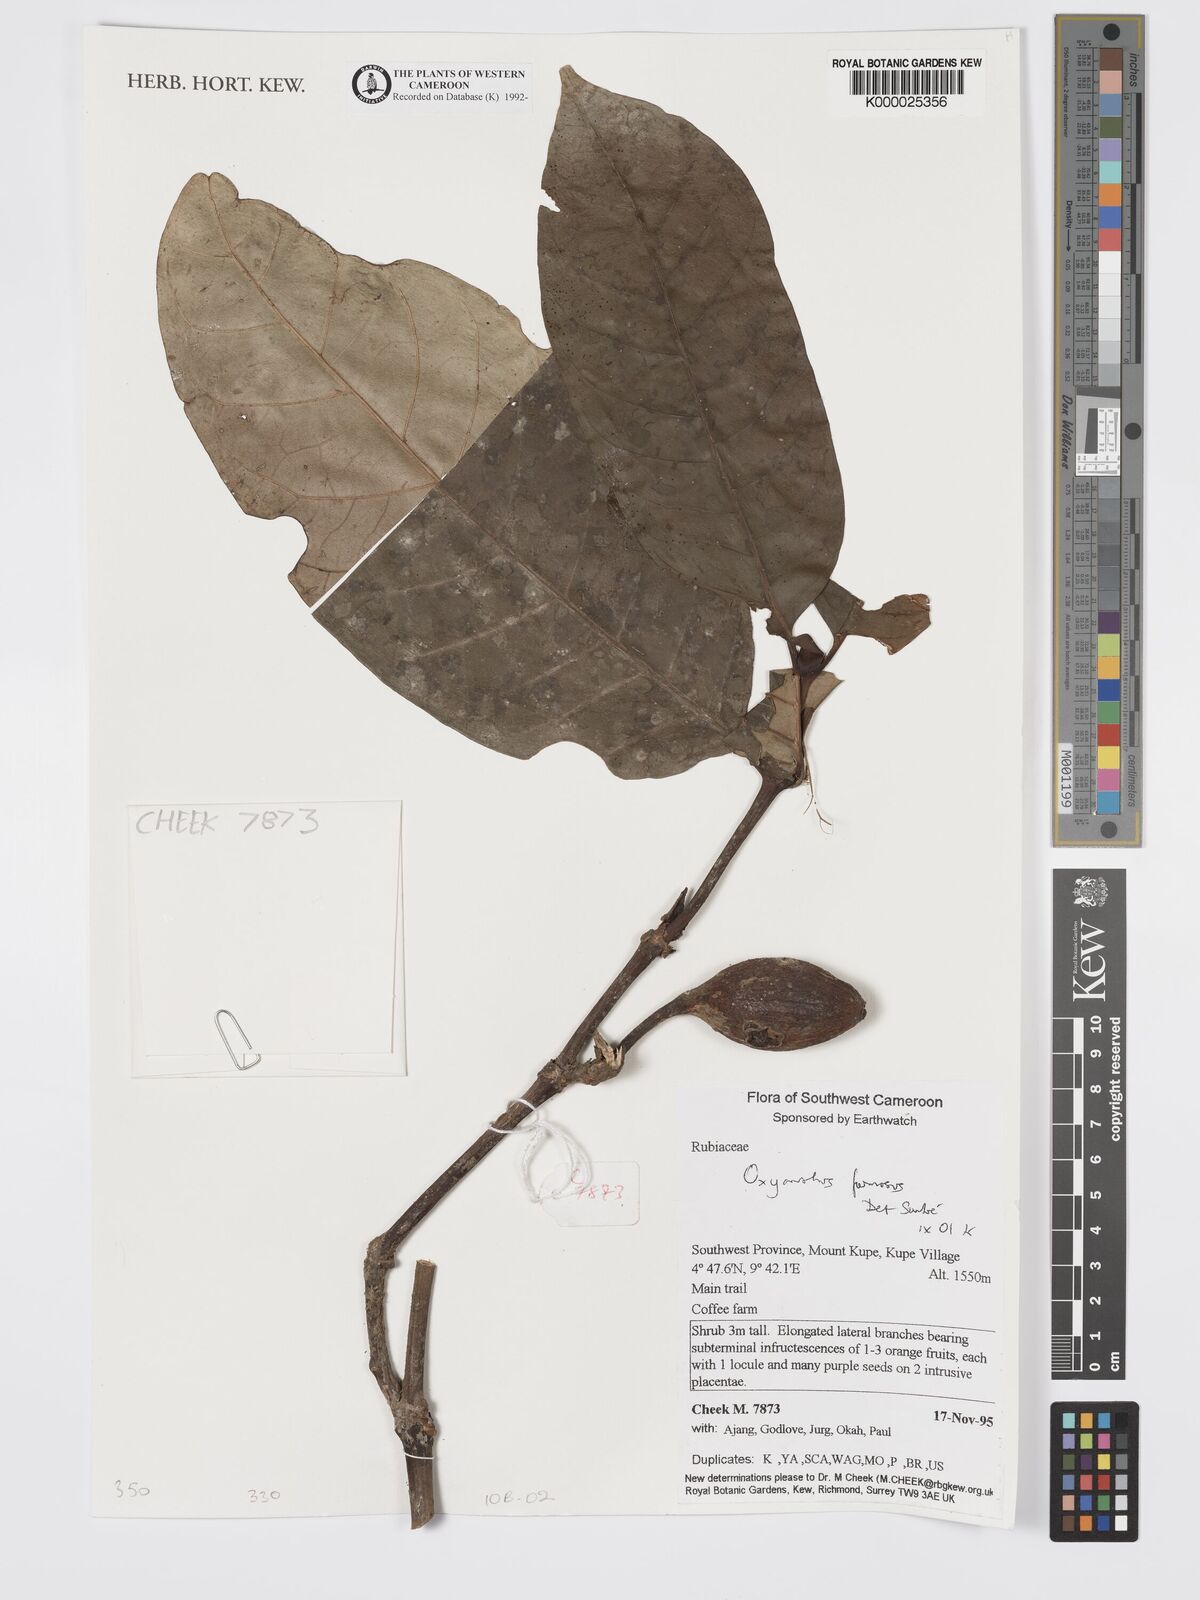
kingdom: Plantae
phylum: Tracheophyta
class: Magnoliopsida
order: Gentianales
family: Rubiaceae
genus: Oxyanthus
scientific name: Oxyanthus
